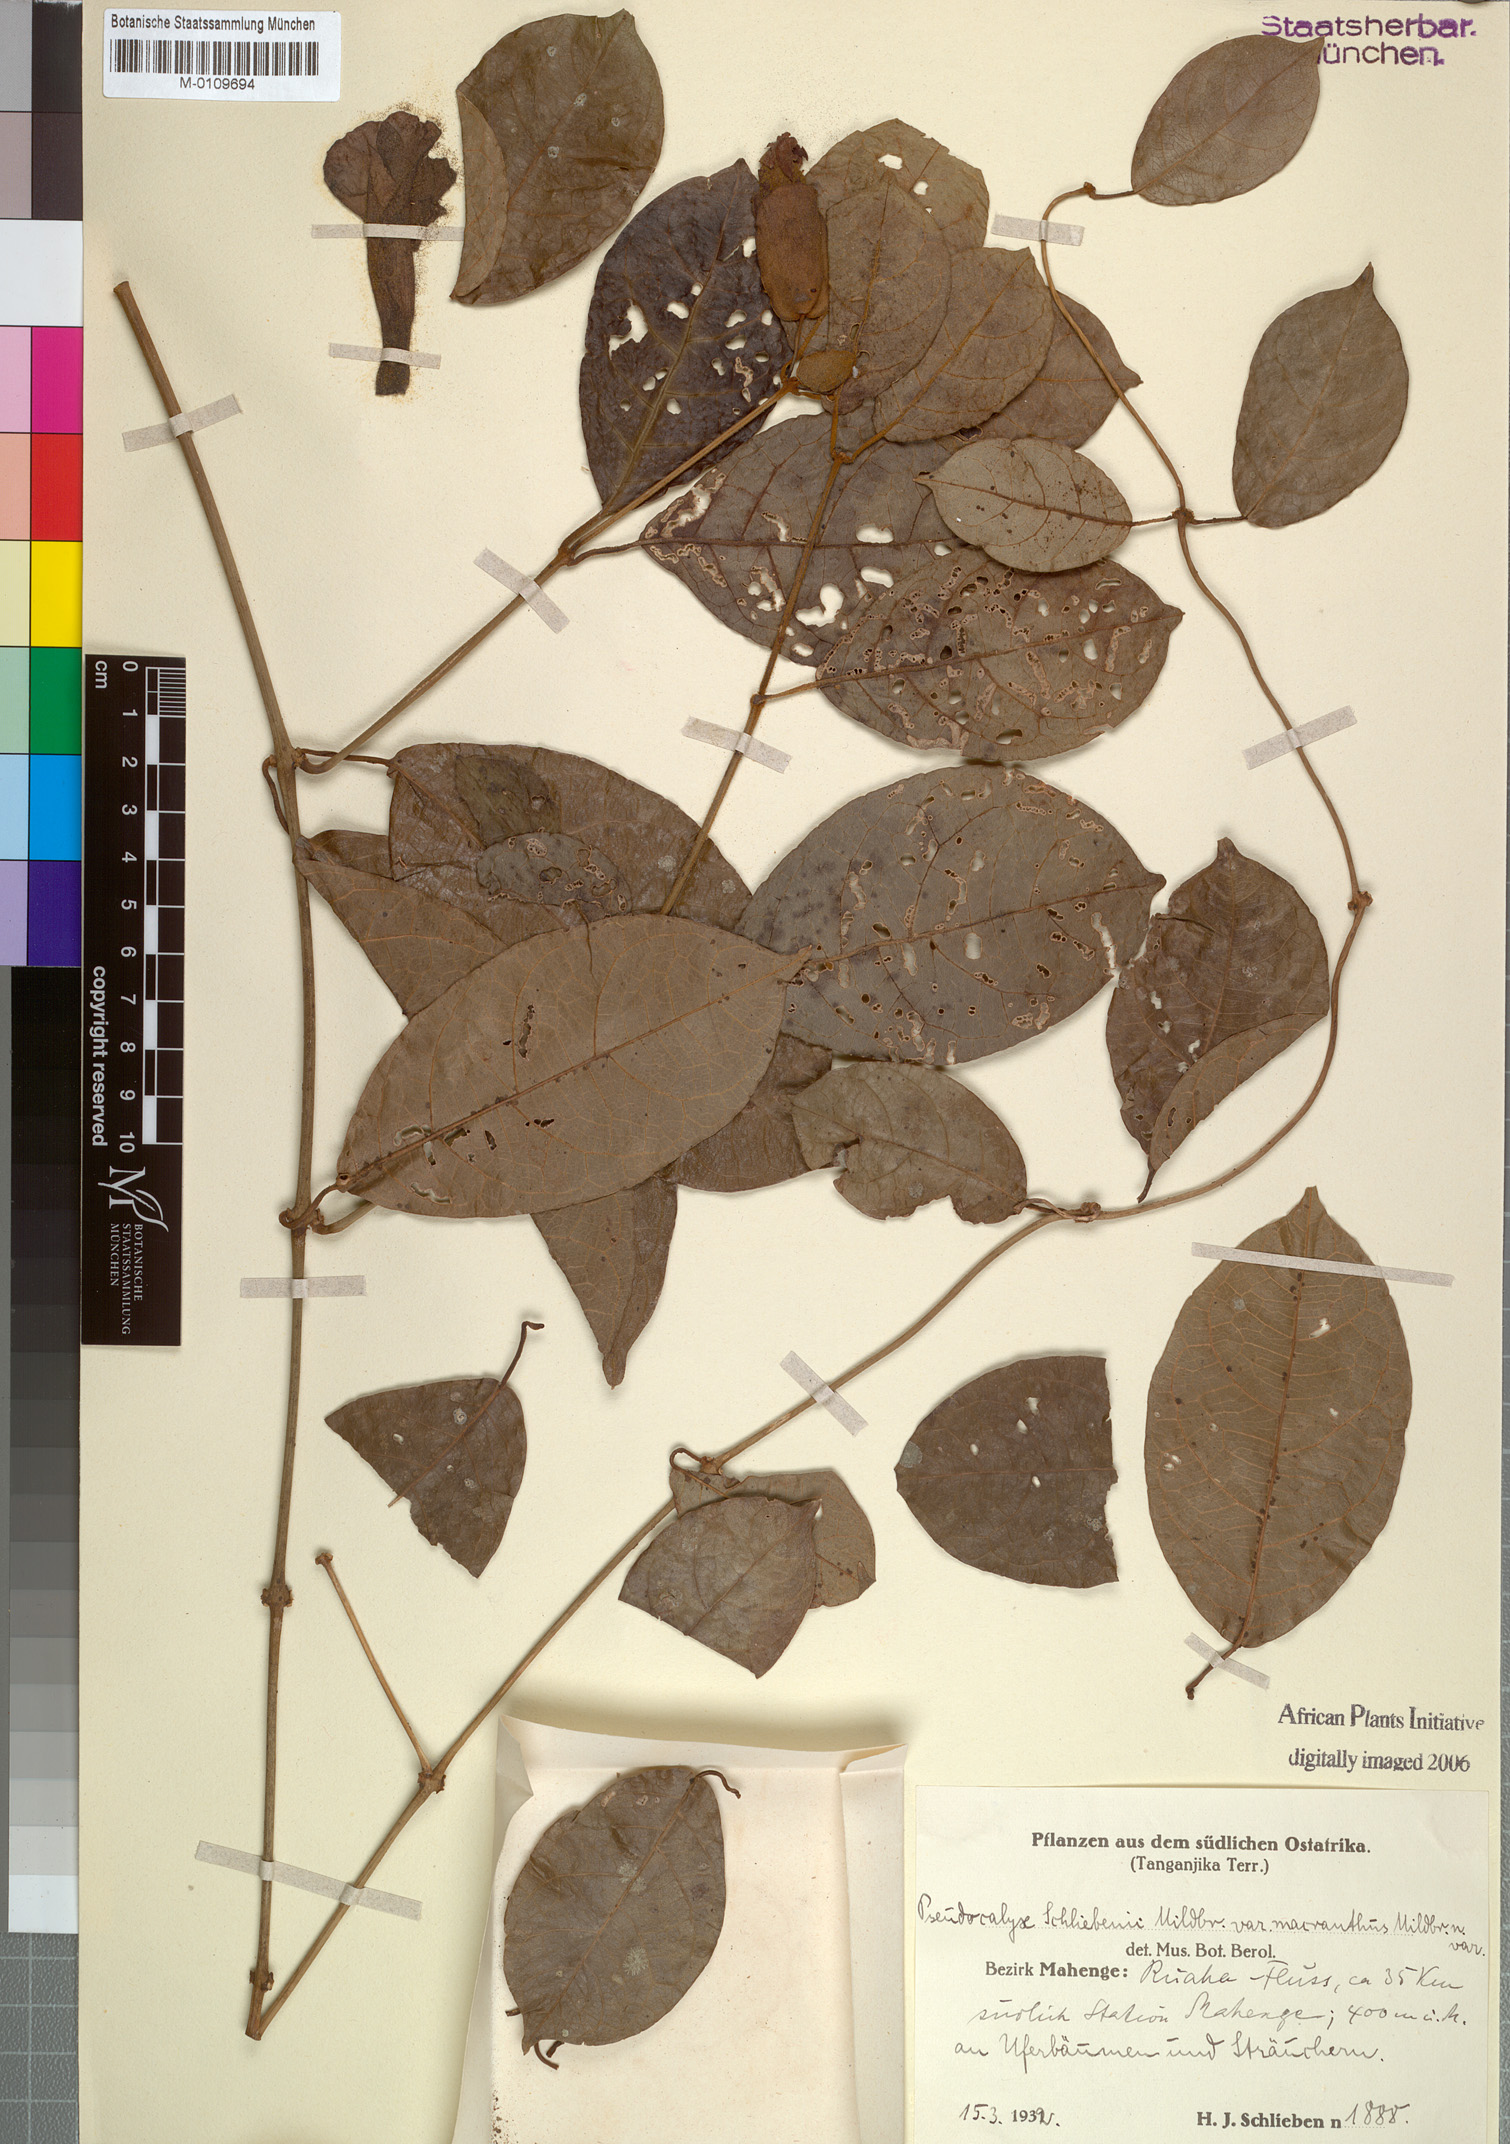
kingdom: Plantae
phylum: Tracheophyta
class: Magnoliopsida
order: Lamiales
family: Acanthaceae
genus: Pseudocalyx
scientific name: Pseudocalyx
